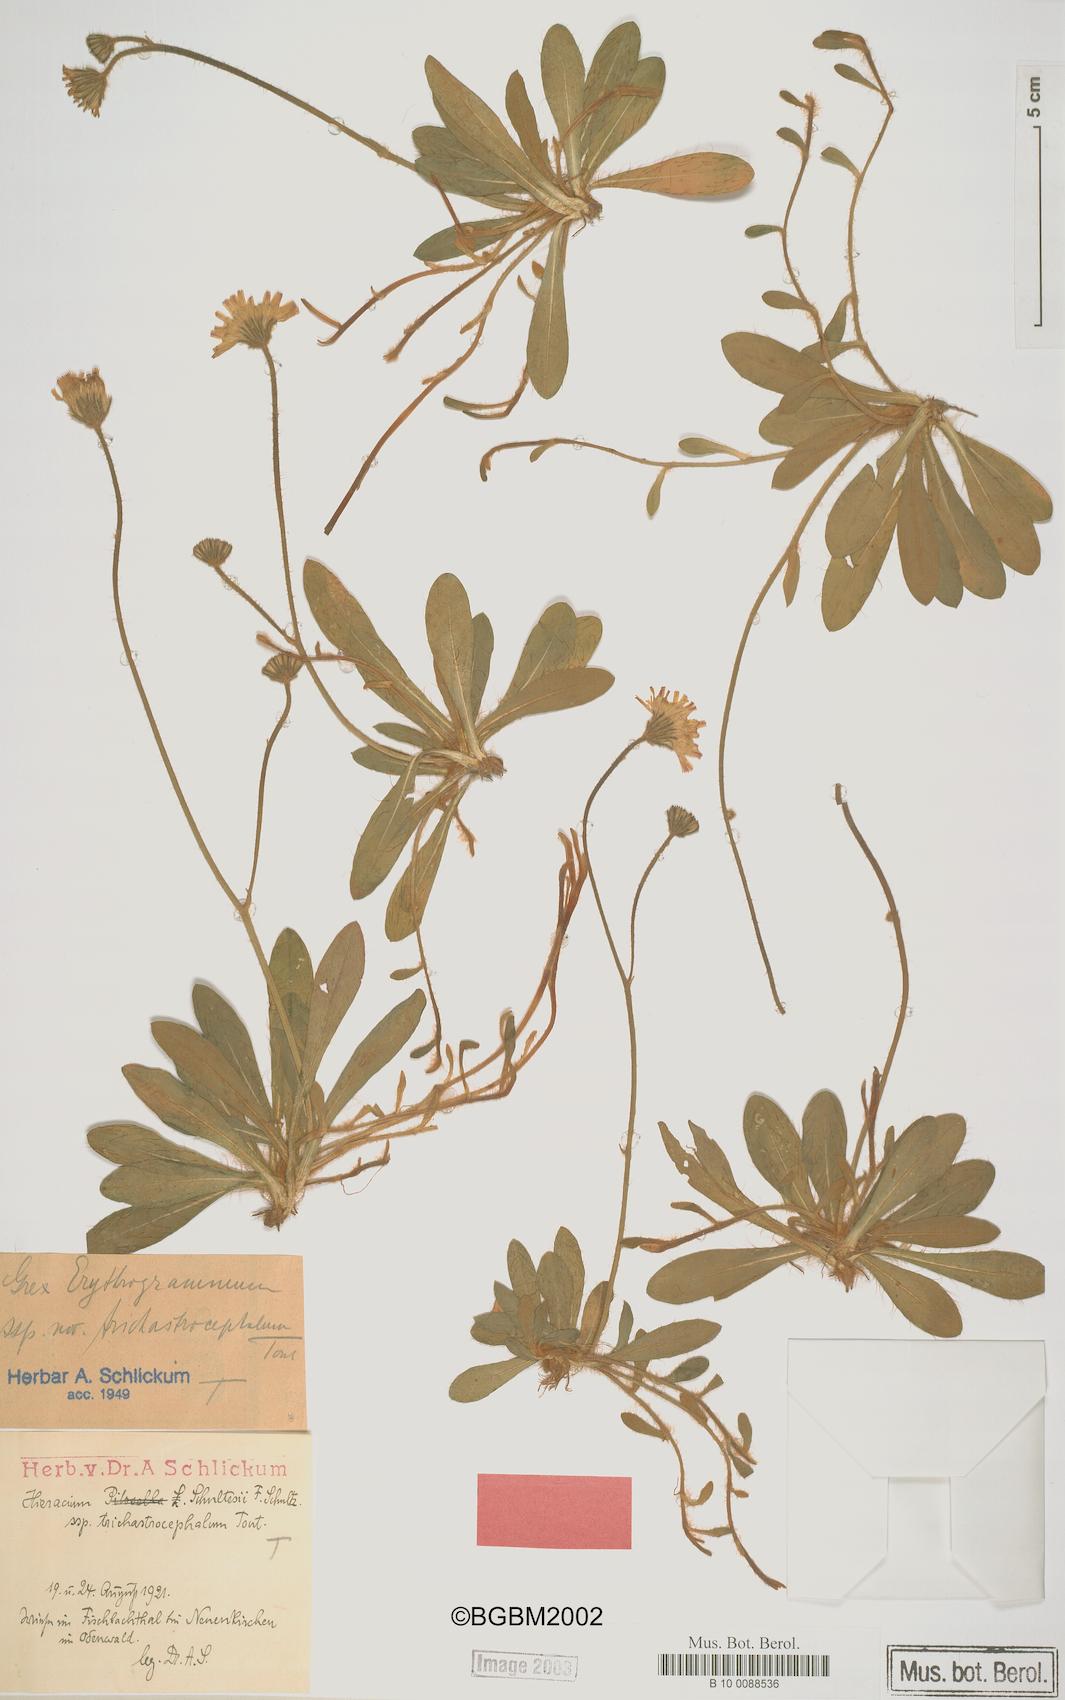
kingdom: Plantae
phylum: Tracheophyta
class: Magnoliopsida
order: Asterales
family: Asteraceae
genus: Pilosella
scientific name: Pilosella schultesii
